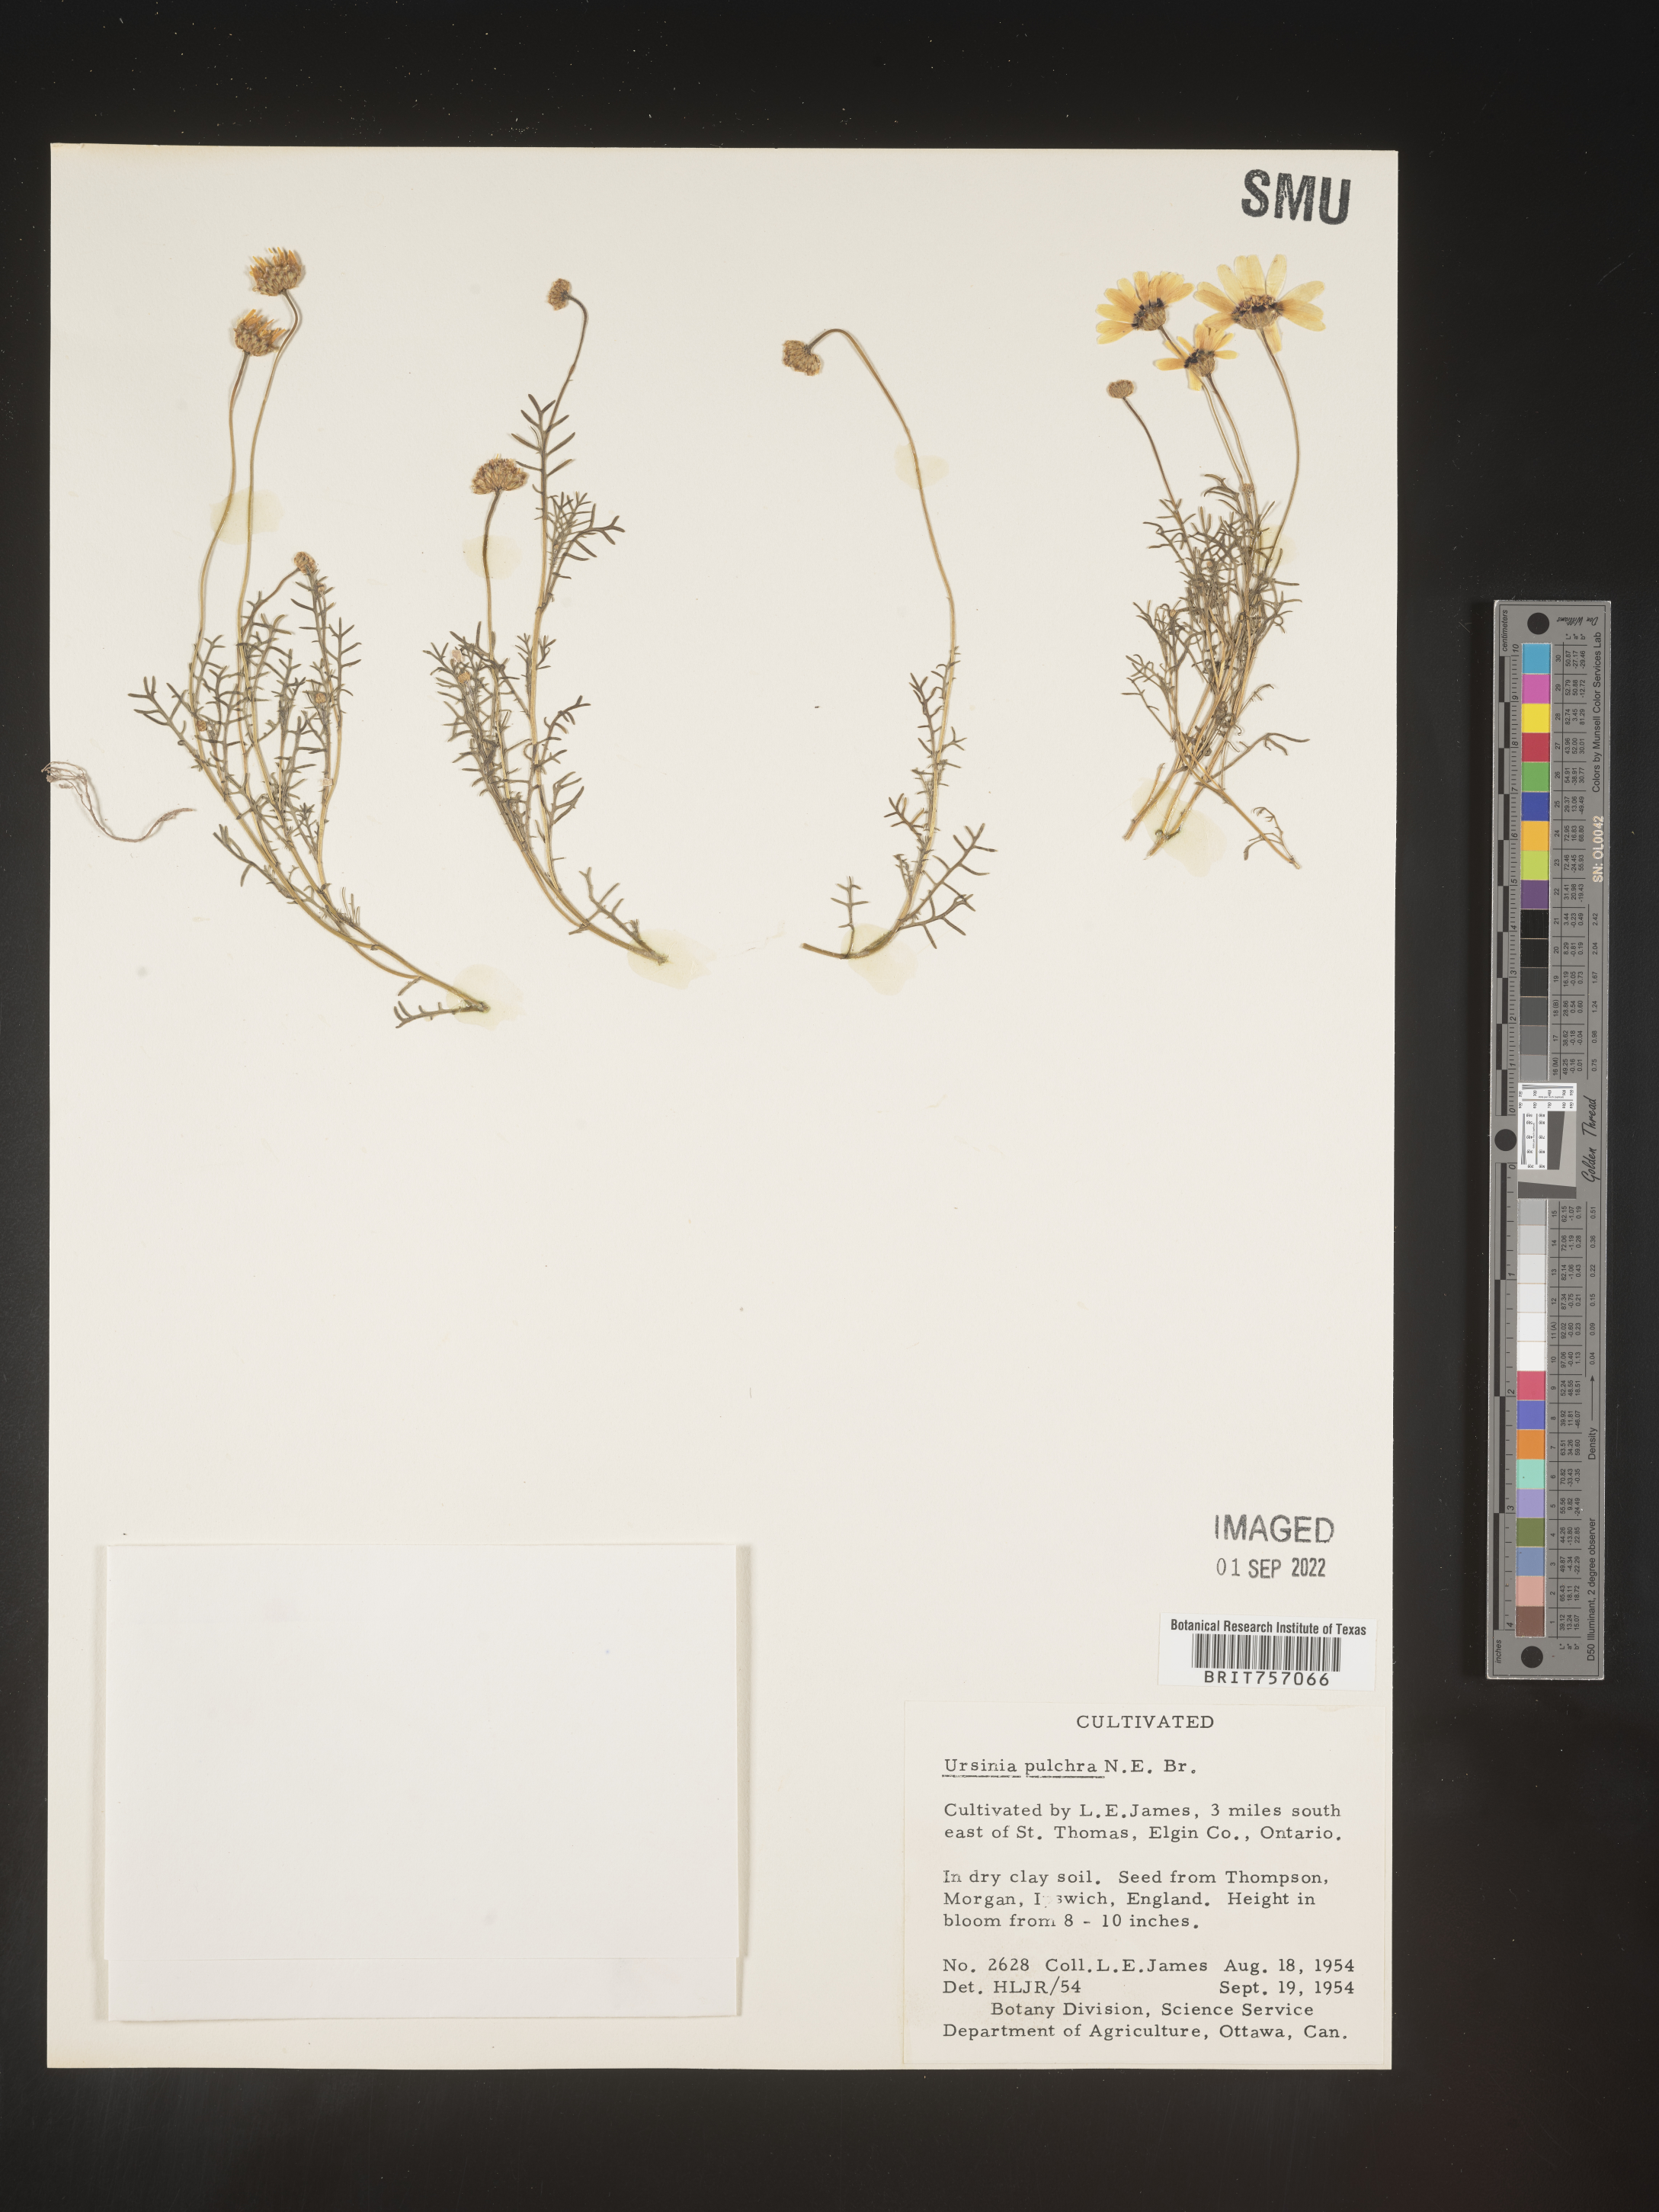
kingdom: Plantae
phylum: Tracheophyta
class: Magnoliopsida
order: Asterales
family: Asteraceae
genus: Ursinia
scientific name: Ursinia
